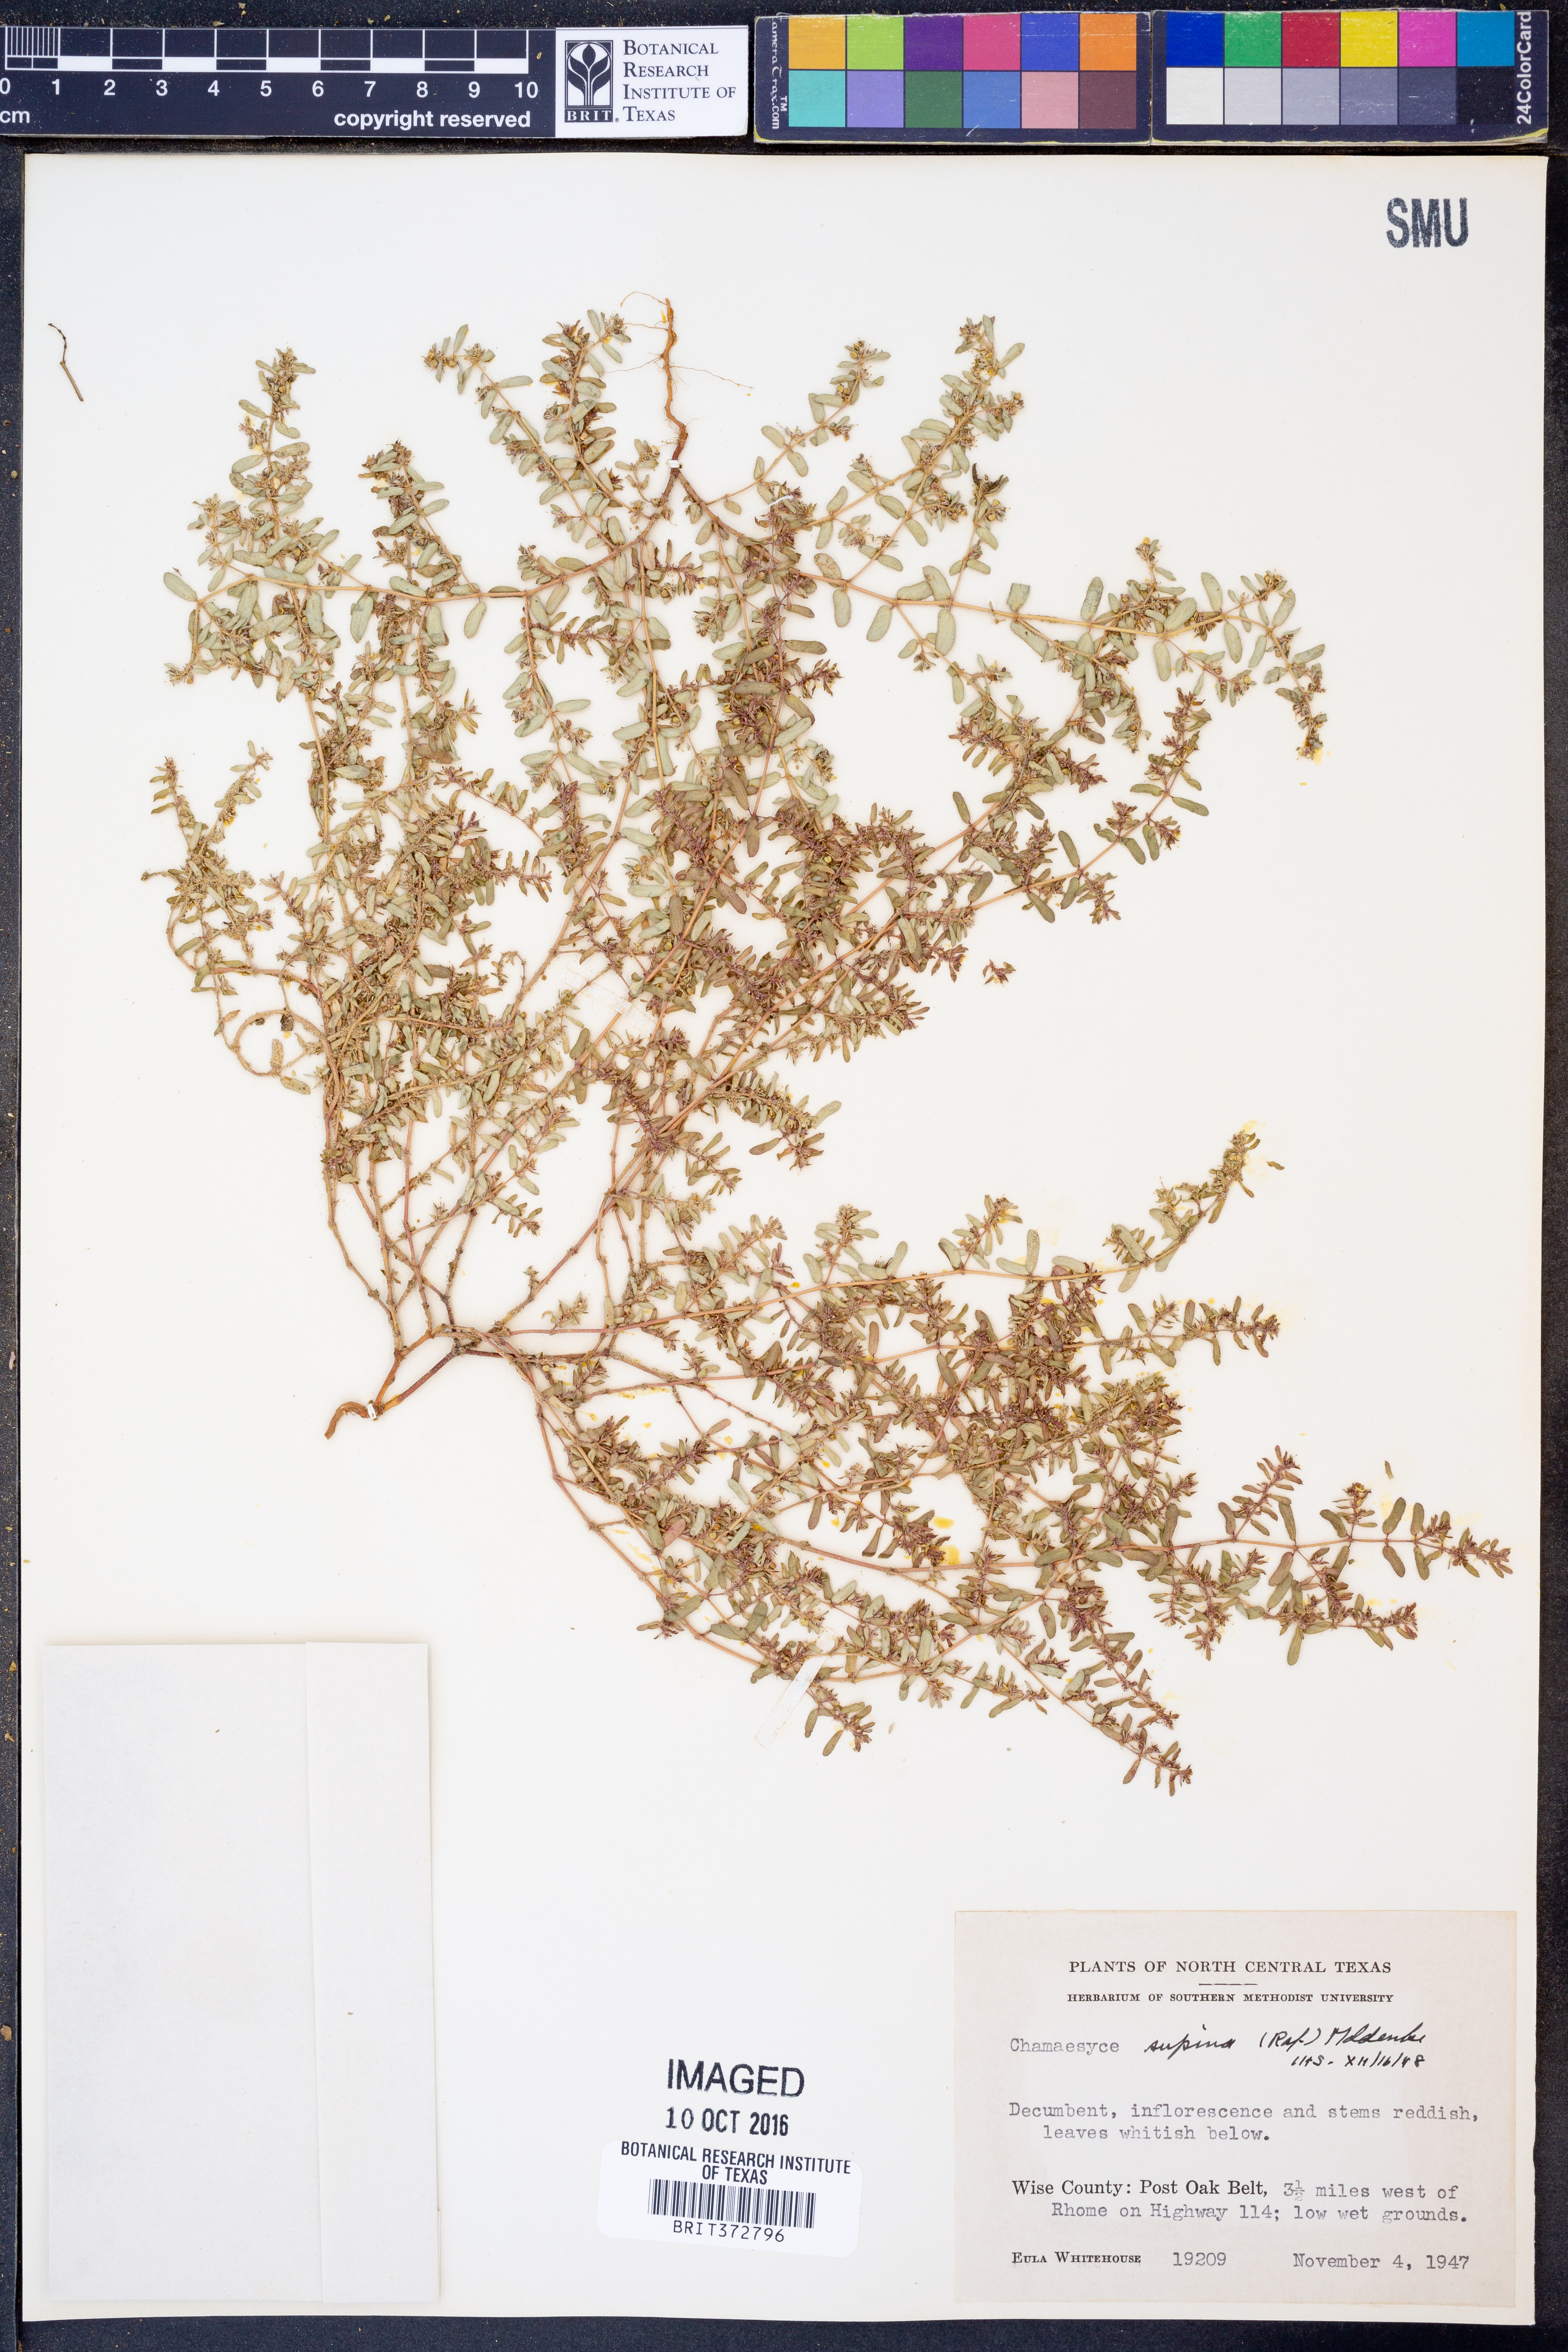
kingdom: Plantae
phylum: Tracheophyta
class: Magnoliopsida
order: Malpighiales
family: Euphorbiaceae
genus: Euphorbia
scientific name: Euphorbia maculata
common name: Spotted spurge
